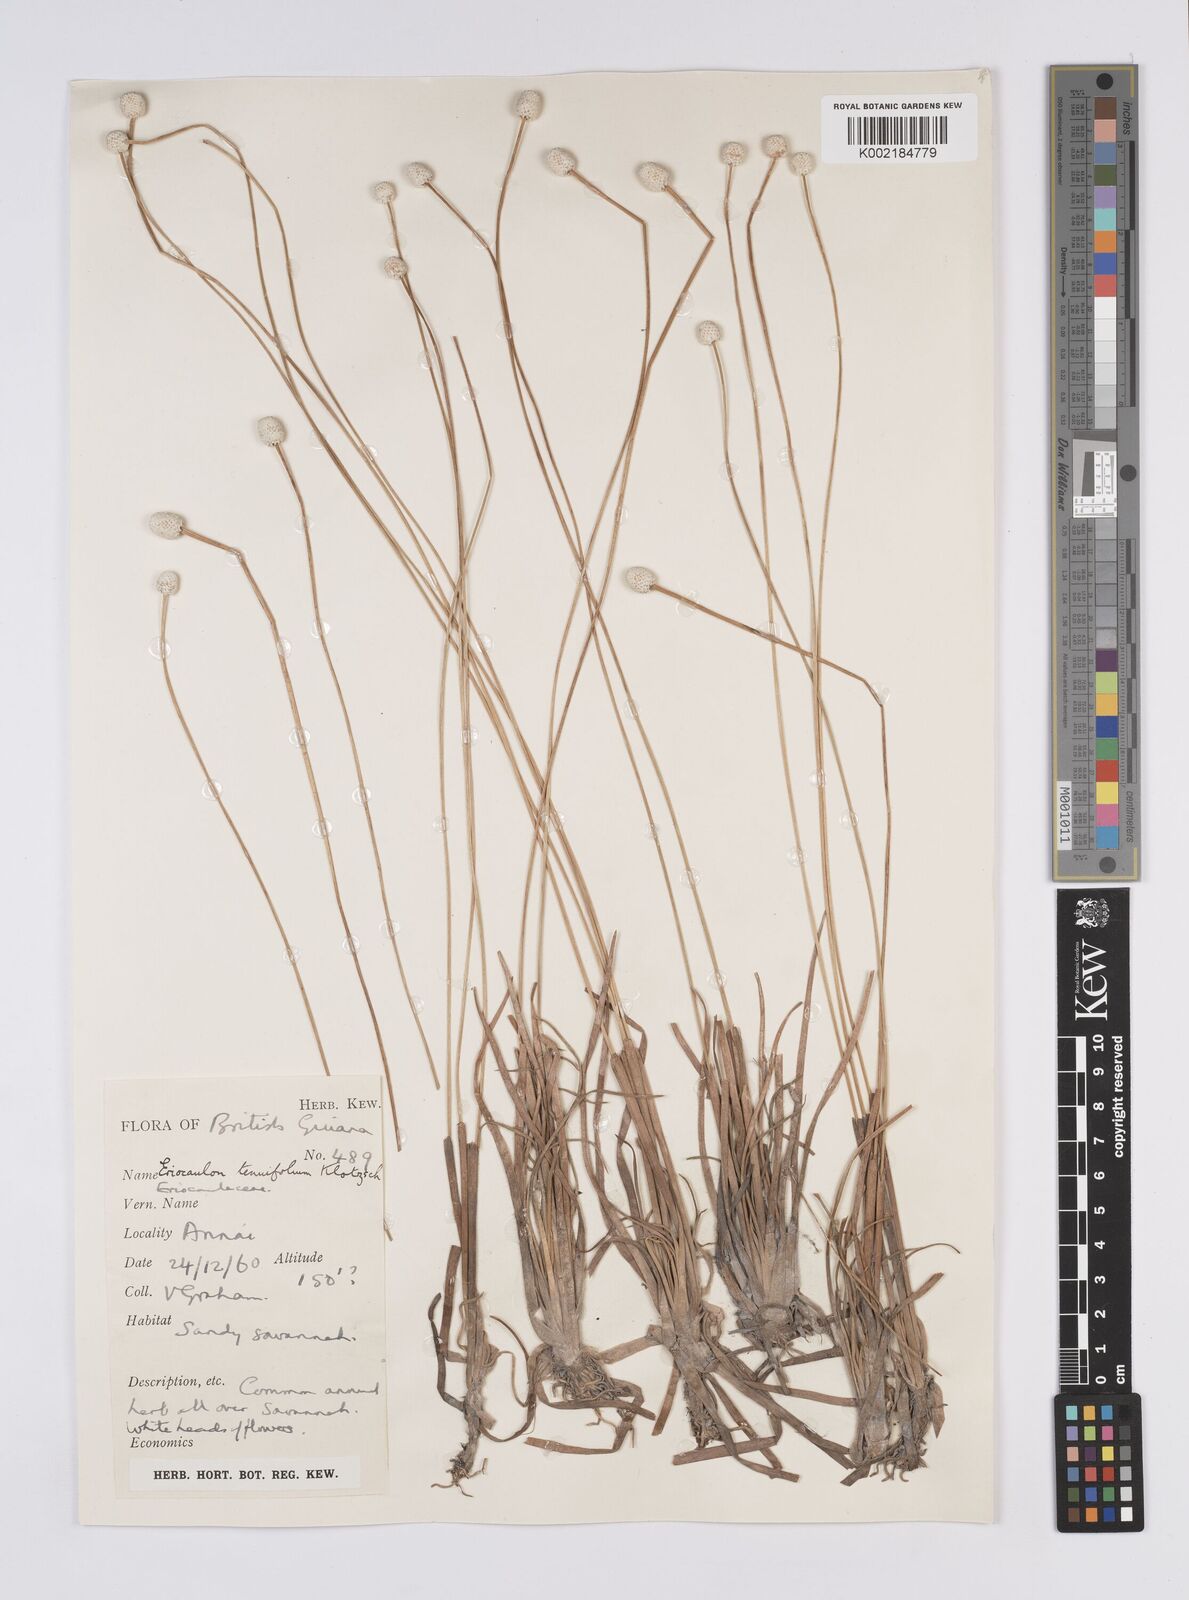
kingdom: Plantae
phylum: Tracheophyta
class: Liliopsida
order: Poales
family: Eriocaulaceae
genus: Eriocaulon
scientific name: Eriocaulon tenuifolium
